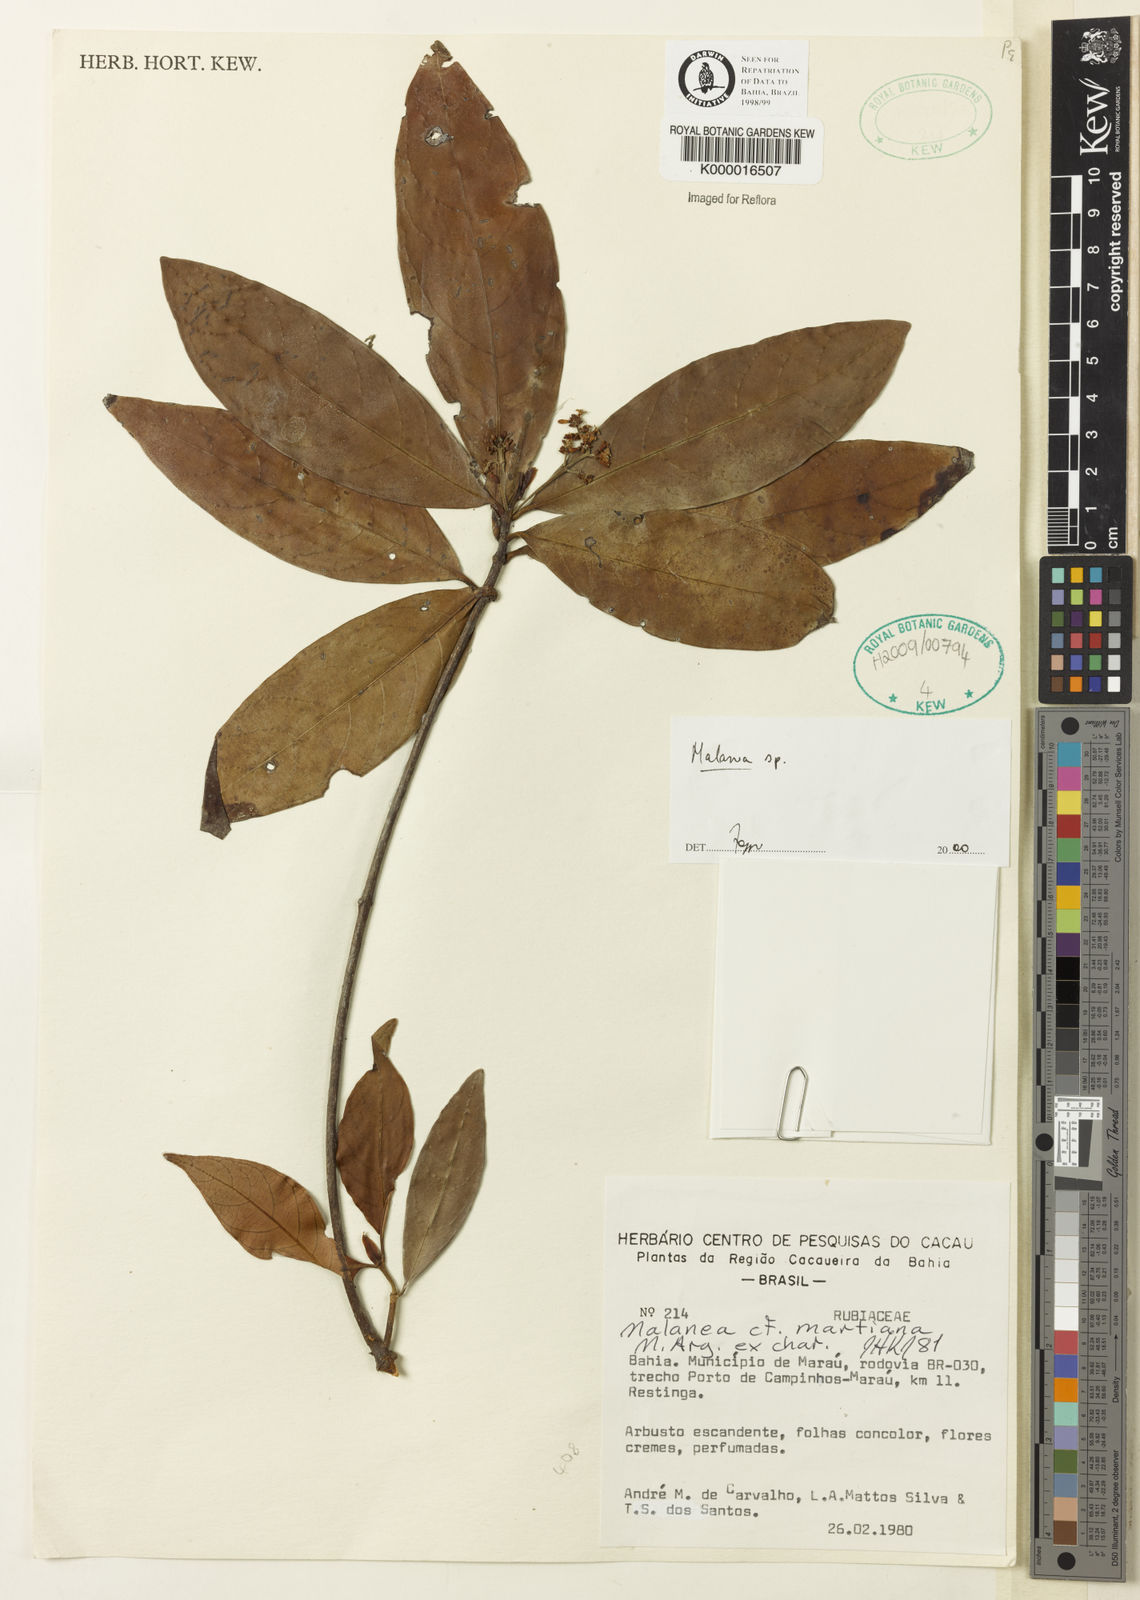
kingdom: Plantae
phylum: Tracheophyta
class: Magnoliopsida
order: Gentianales
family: Rubiaceae
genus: Malanea
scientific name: Malanea
